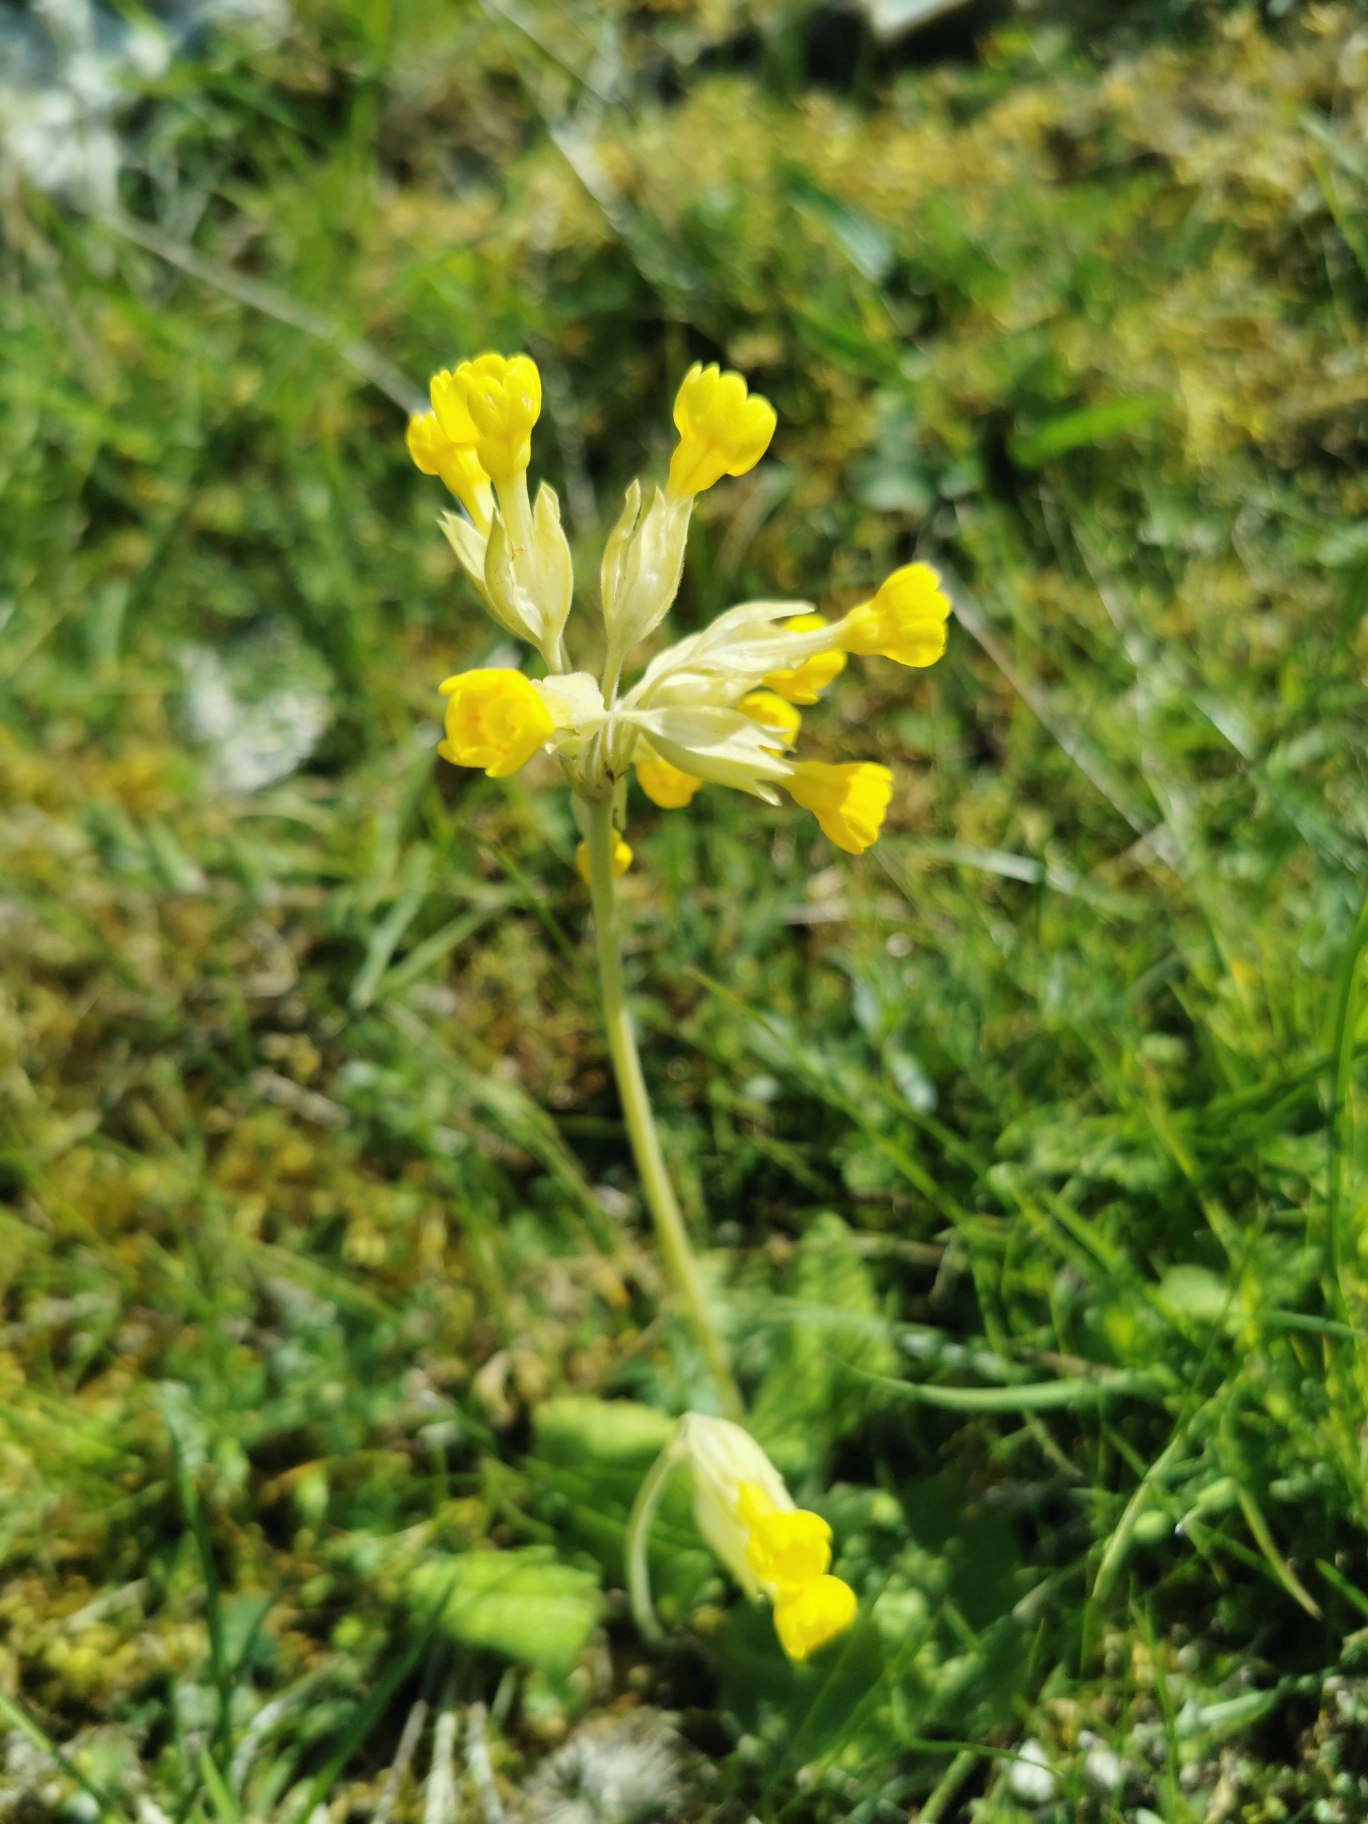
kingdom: Plantae
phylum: Tracheophyta
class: Magnoliopsida
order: Ericales
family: Primulaceae
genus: Primula
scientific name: Primula veris
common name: Hulkravet kodriver
